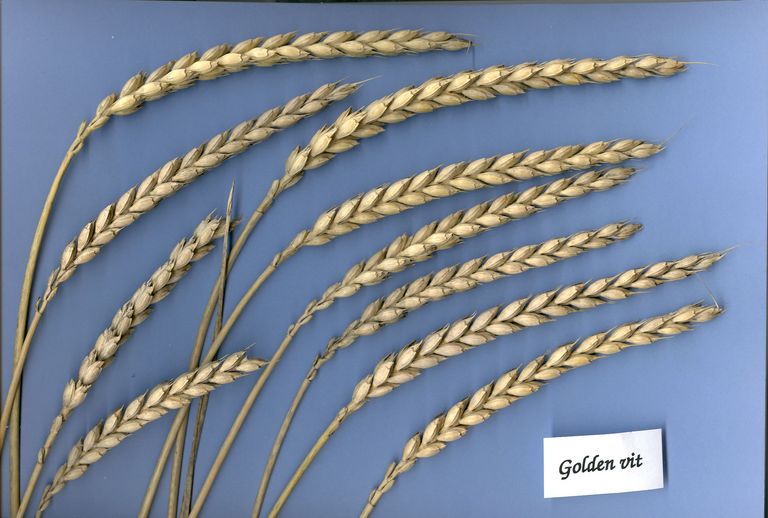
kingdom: Plantae
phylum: Tracheophyta
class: Liliopsida
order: Poales
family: Poaceae
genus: Triticum
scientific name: Triticum aestivum
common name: Common wheat
